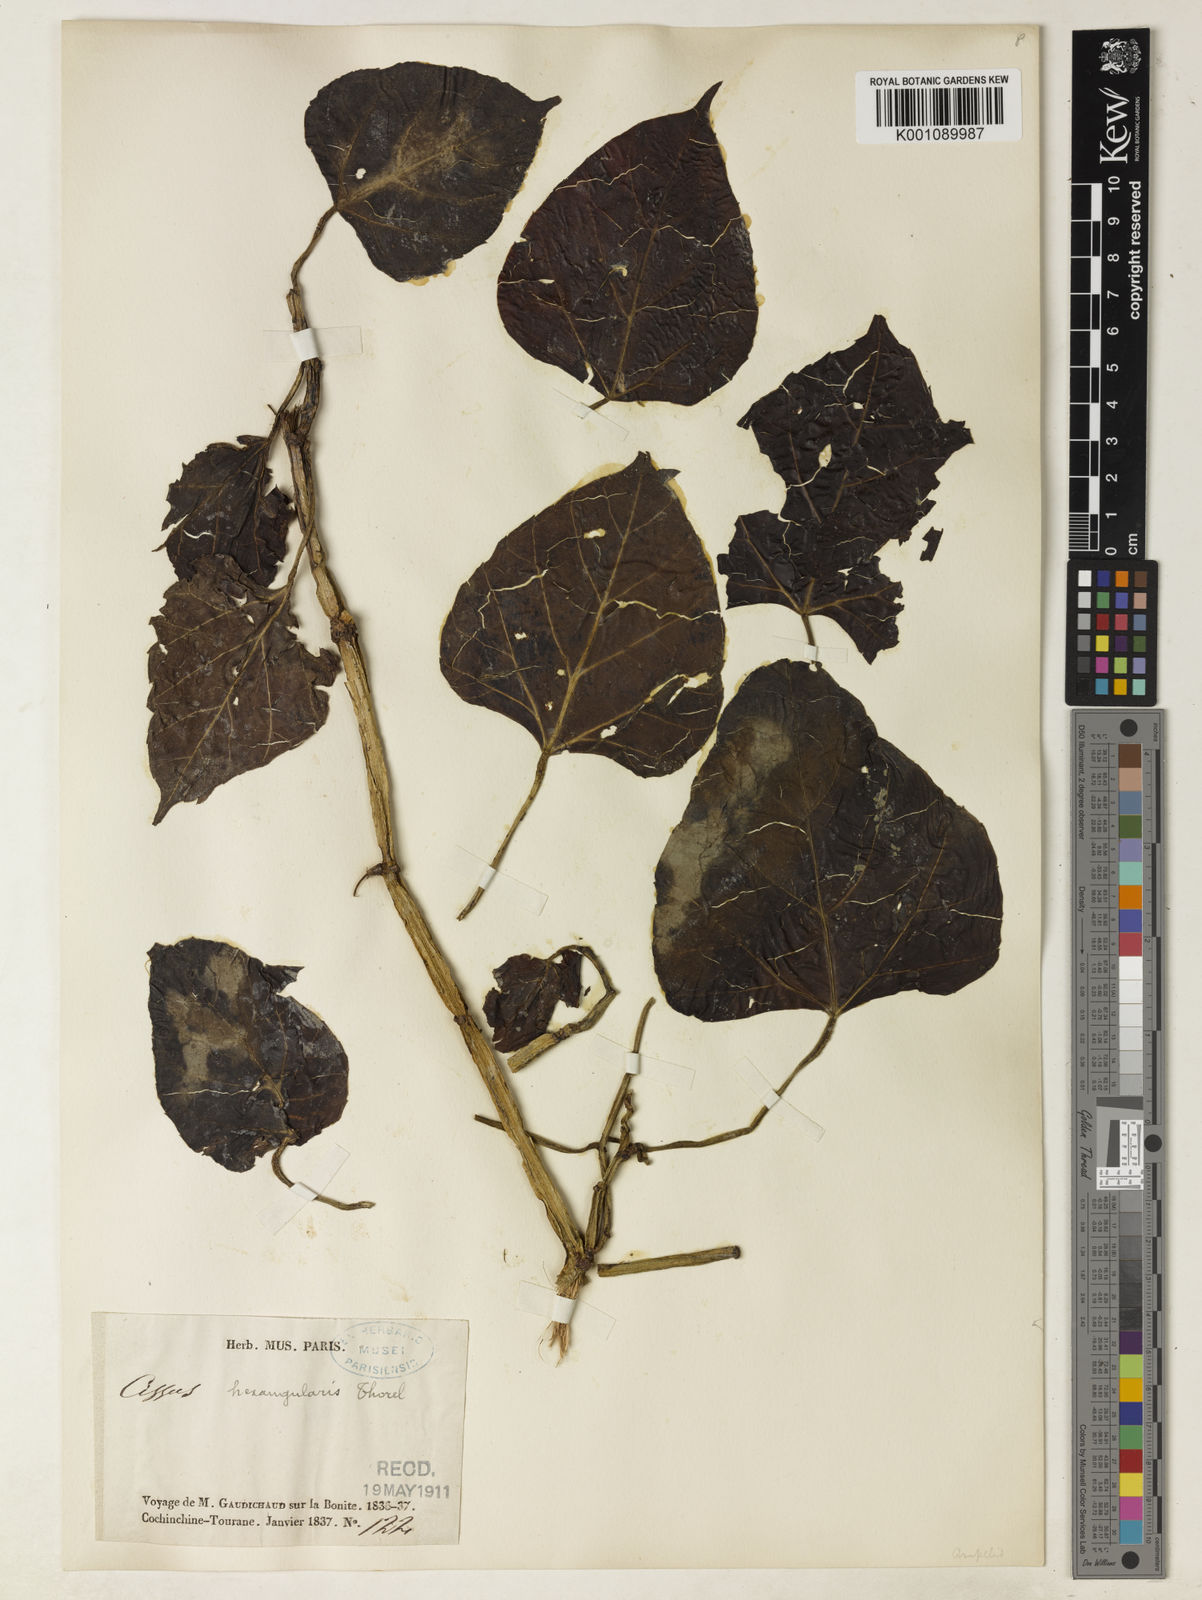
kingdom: Plantae
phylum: Tracheophyta
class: Magnoliopsida
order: Vitales
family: Vitaceae
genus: Cissus
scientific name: Cissus hexangularis
